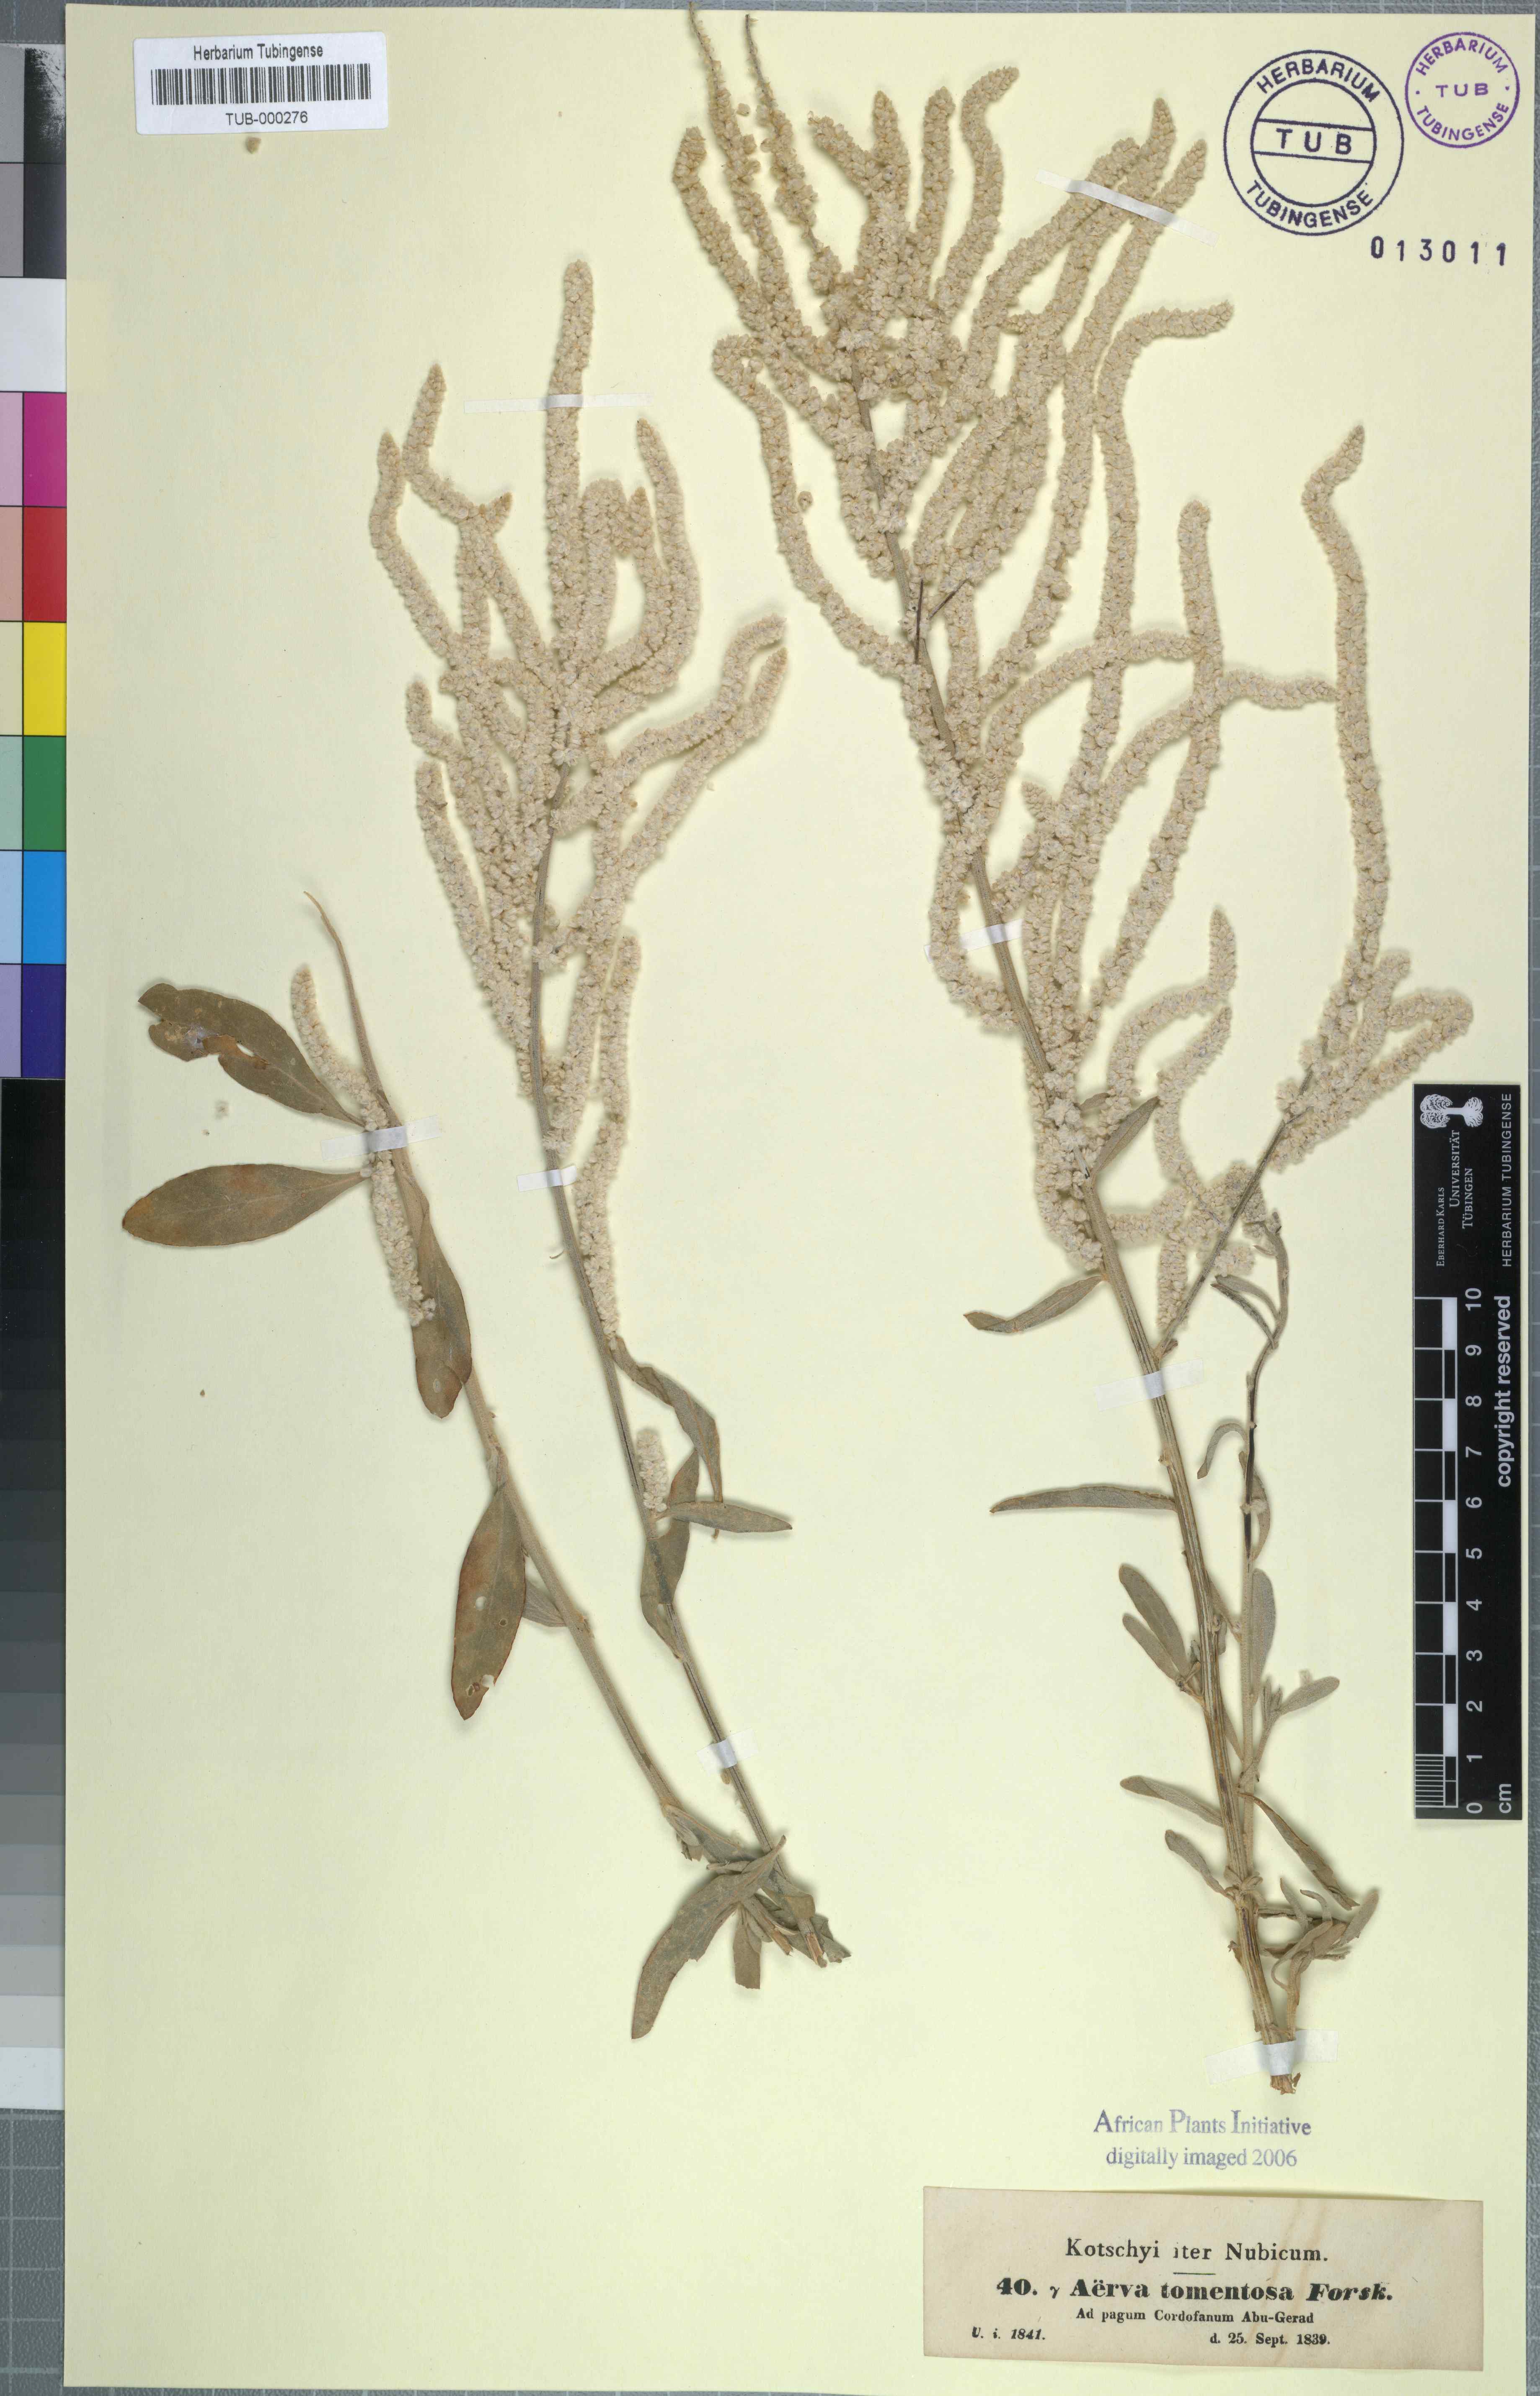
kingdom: Plantae
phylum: Tracheophyta
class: Magnoliopsida
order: Caryophyllales
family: Amaranthaceae
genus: Aerva
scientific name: Aerva javanica
